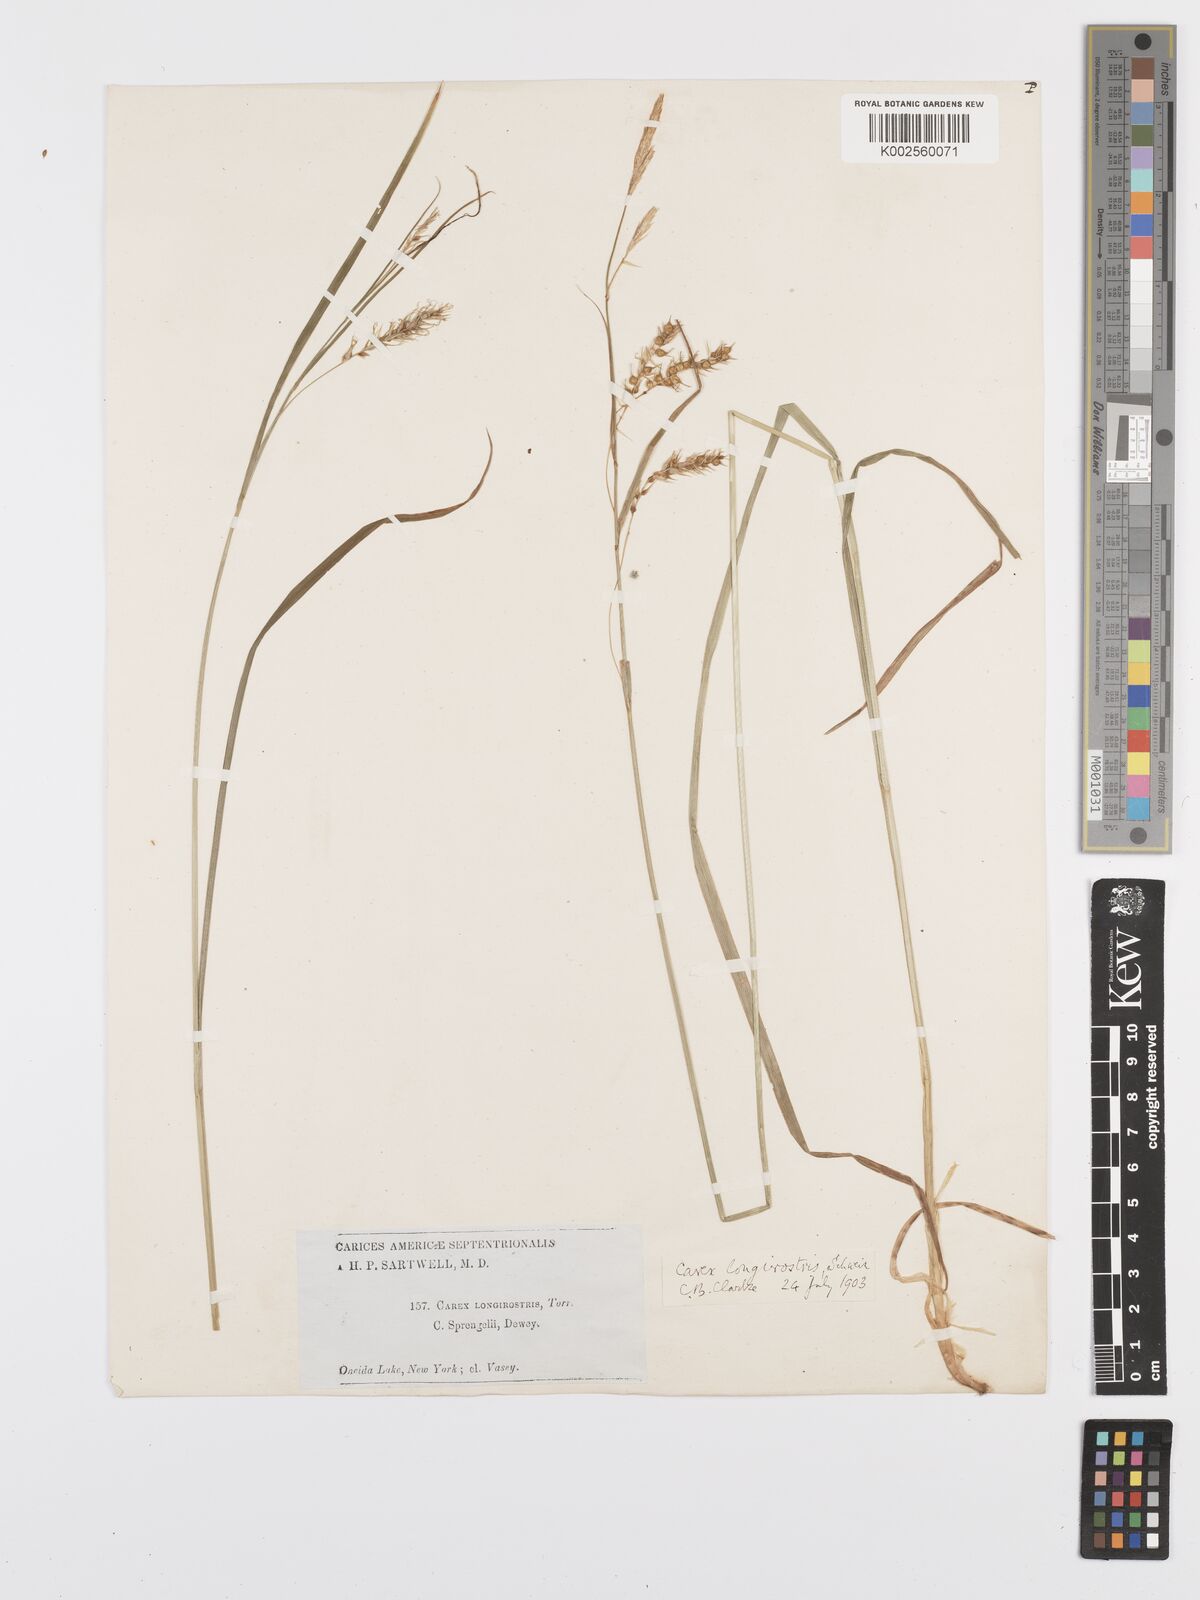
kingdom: Plantae
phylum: Tracheophyta
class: Liliopsida
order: Poales
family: Cyperaceae
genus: Carex
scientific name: Carex sprengelii
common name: Long-beaked sedge
